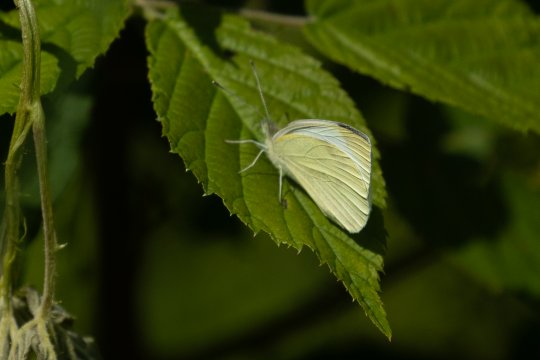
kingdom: Animalia
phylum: Arthropoda
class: Insecta
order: Lepidoptera
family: Pieridae
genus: Pieris
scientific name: Pieris rapae
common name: Cabbage White
